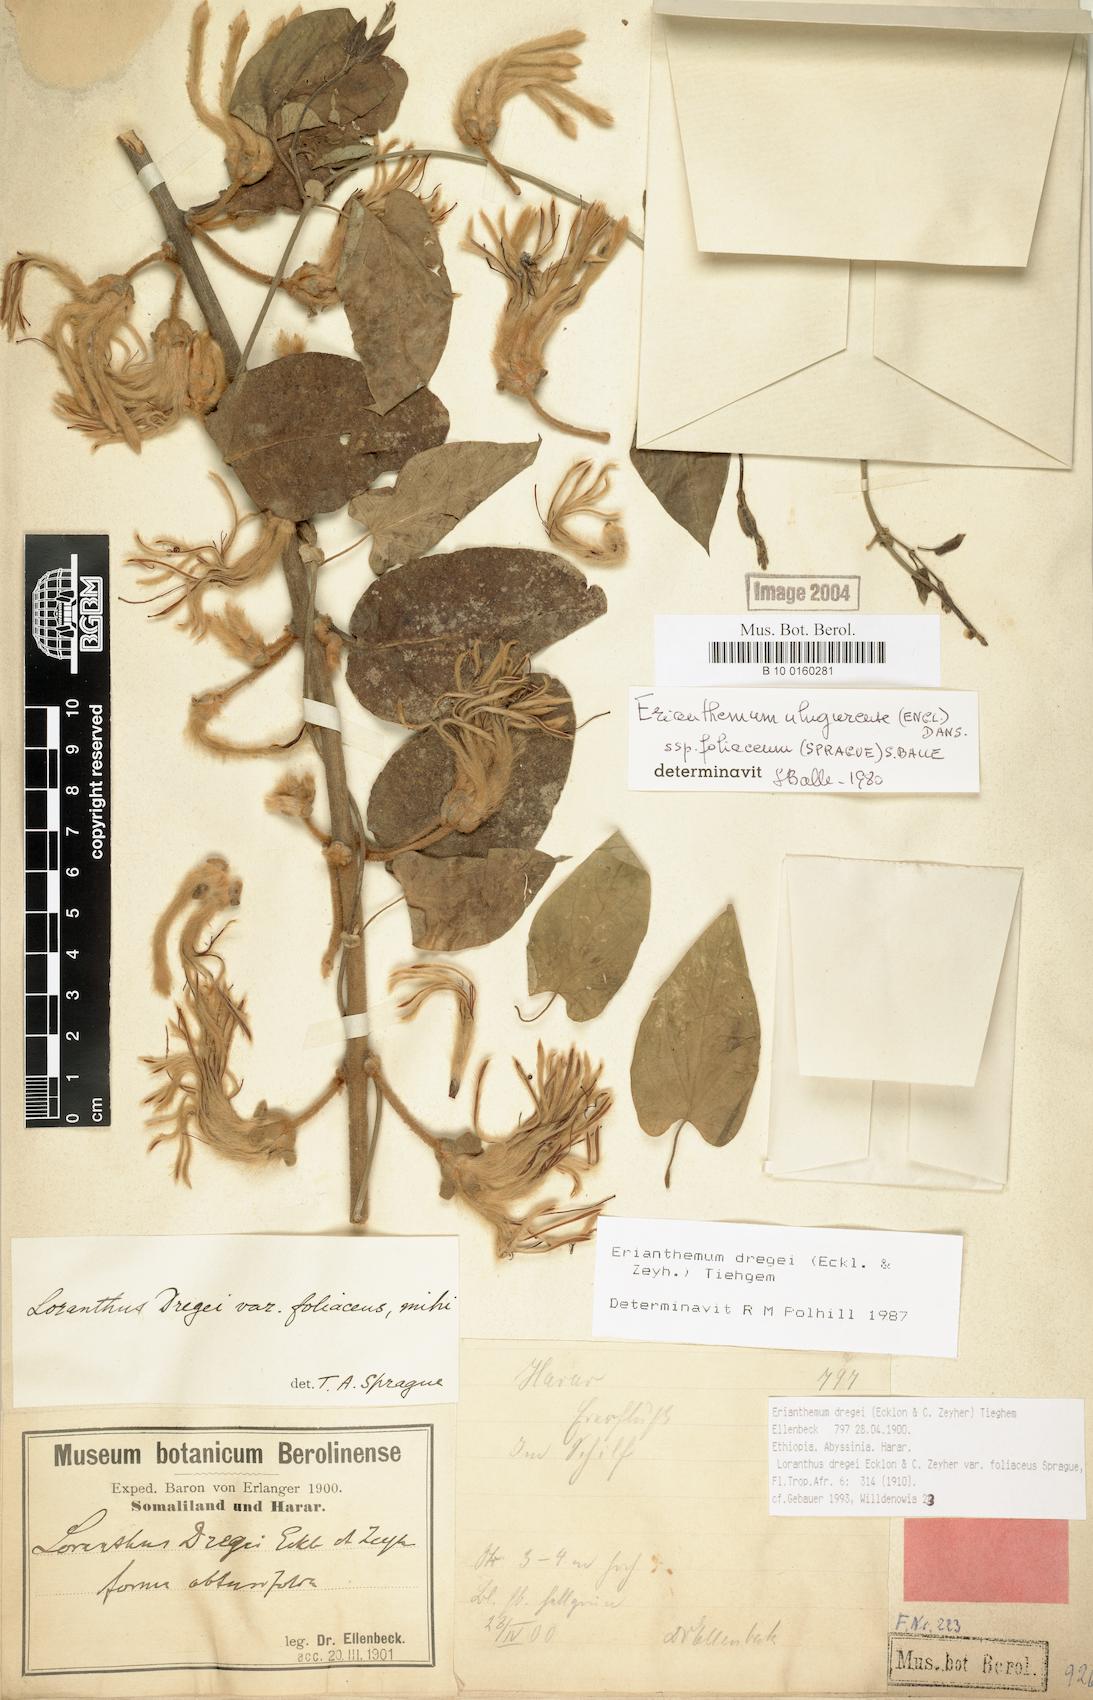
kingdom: Plantae
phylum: Tracheophyta
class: Magnoliopsida
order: Santalales
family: Loranthaceae
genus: Erianthemum
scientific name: Erianthemum dregei
